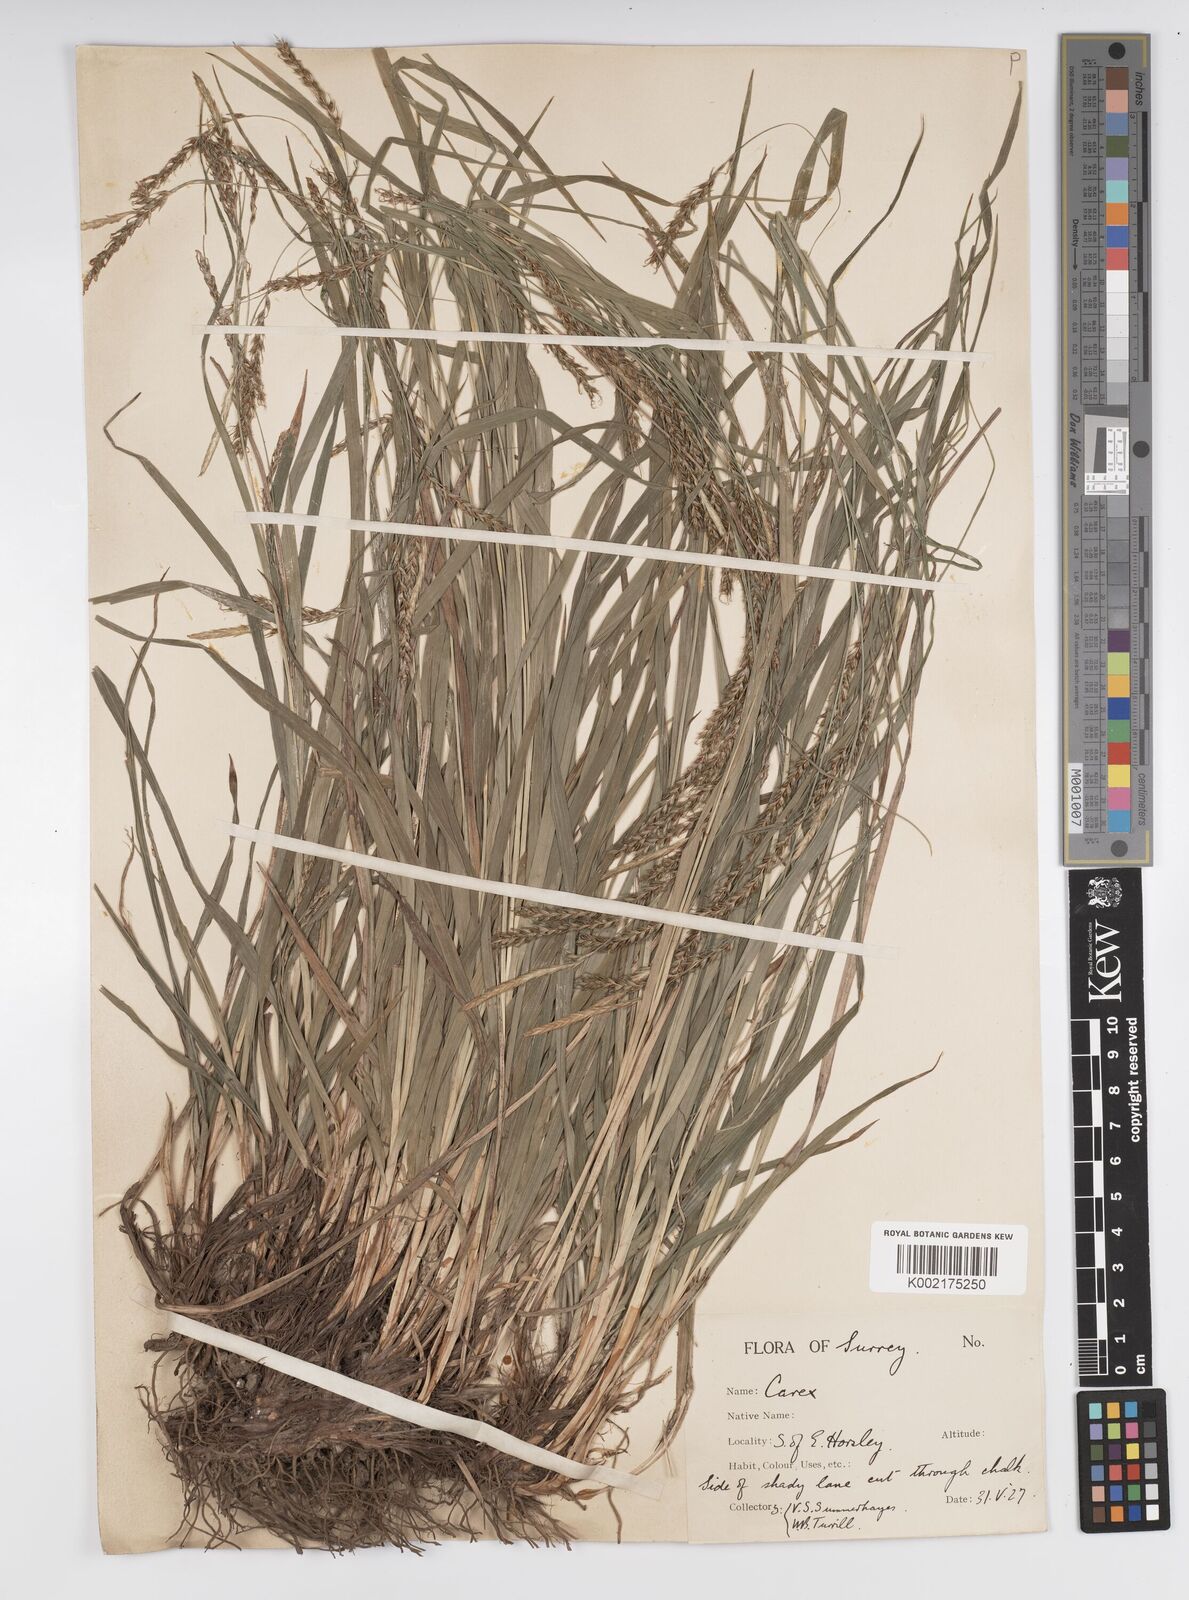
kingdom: Plantae
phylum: Tracheophyta
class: Liliopsida
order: Poales
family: Cyperaceae
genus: Carex
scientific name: Carex sylvatica
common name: Wood-sedge
